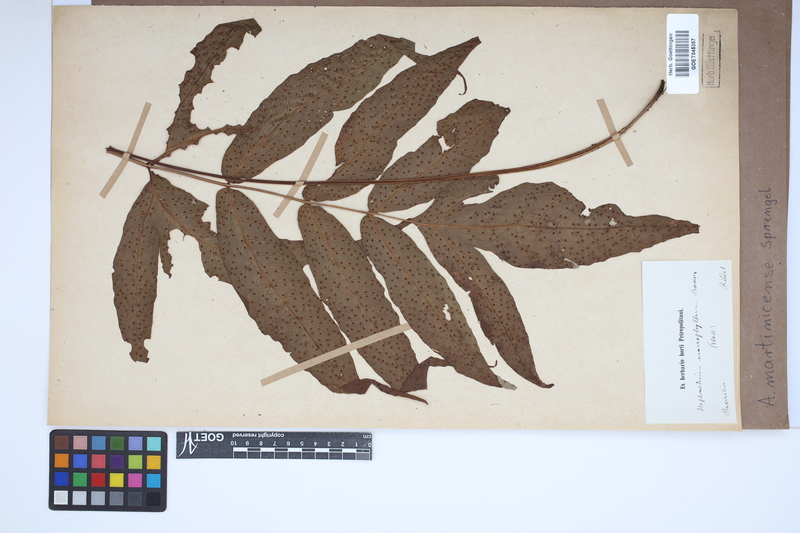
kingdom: Plantae
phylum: Tracheophyta
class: Polypodiopsida
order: Polypodiales
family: Tectariaceae
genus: Tectaria
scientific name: Tectaria incisa
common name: Incised halberd fern
